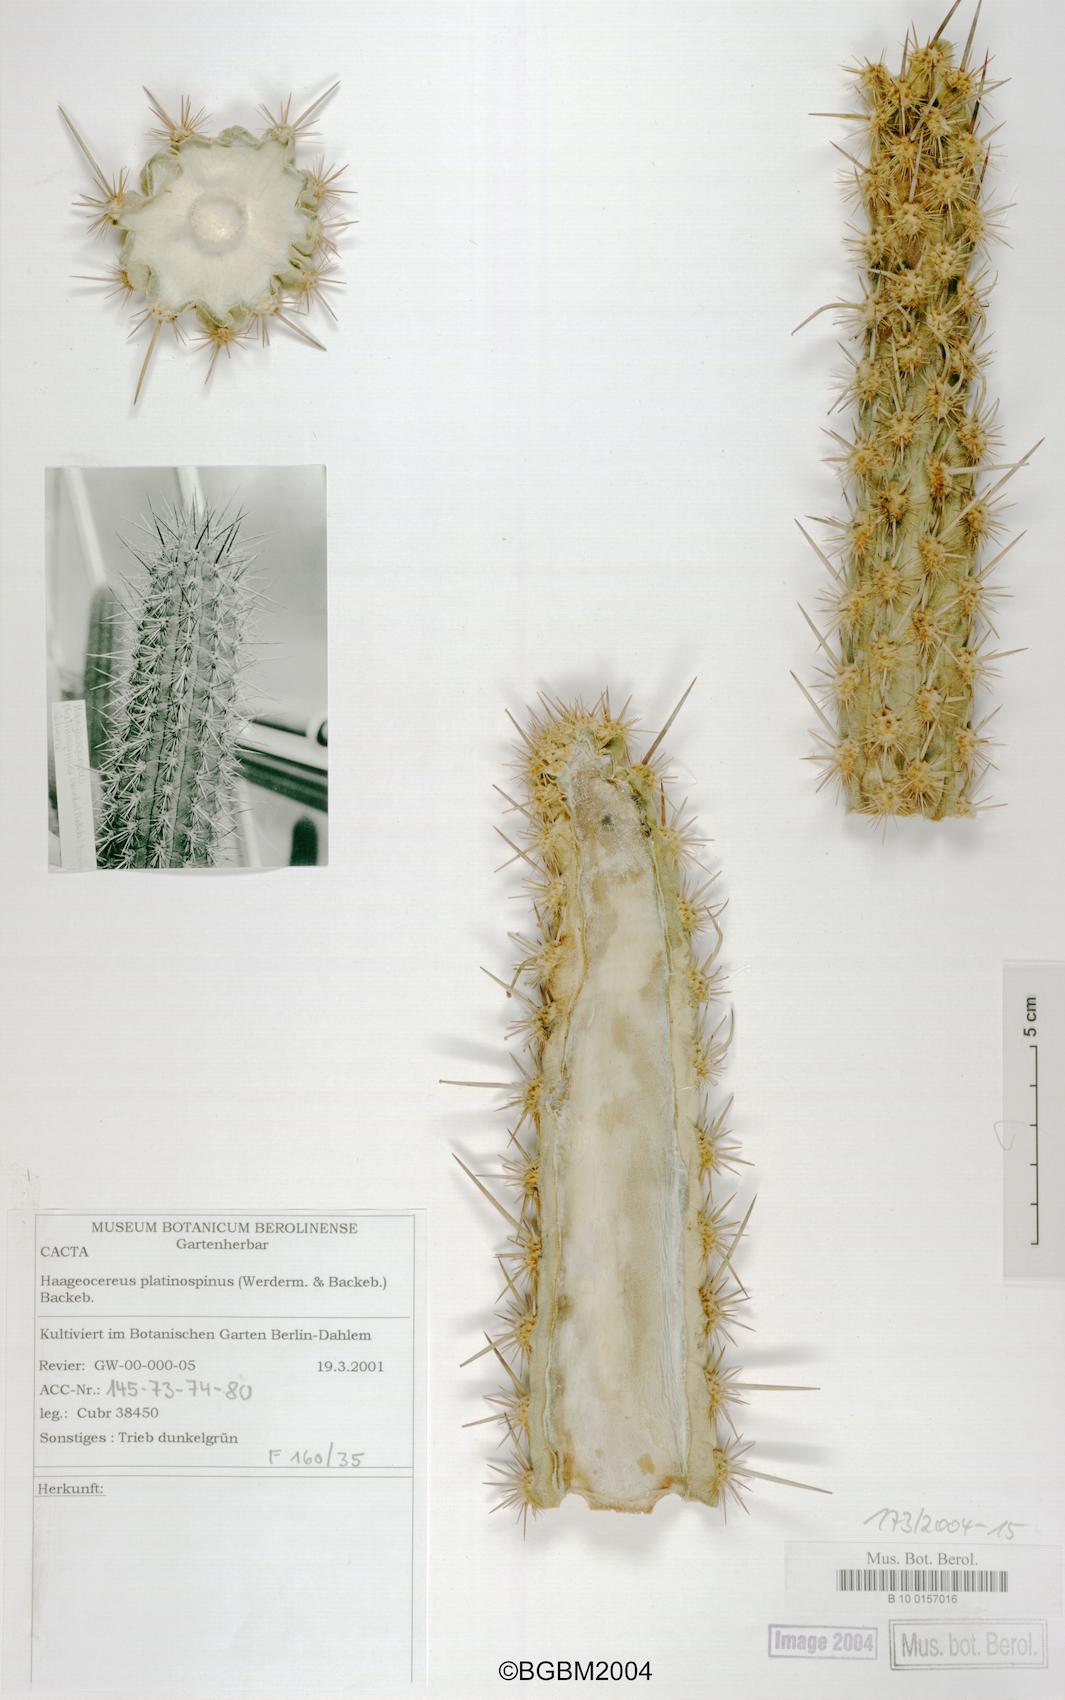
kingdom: Plantae
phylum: Tracheophyta
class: Magnoliopsida
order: Caryophyllales
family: Cactaceae
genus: Weberbauerocereus
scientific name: Weberbauerocereus weberbaueri
